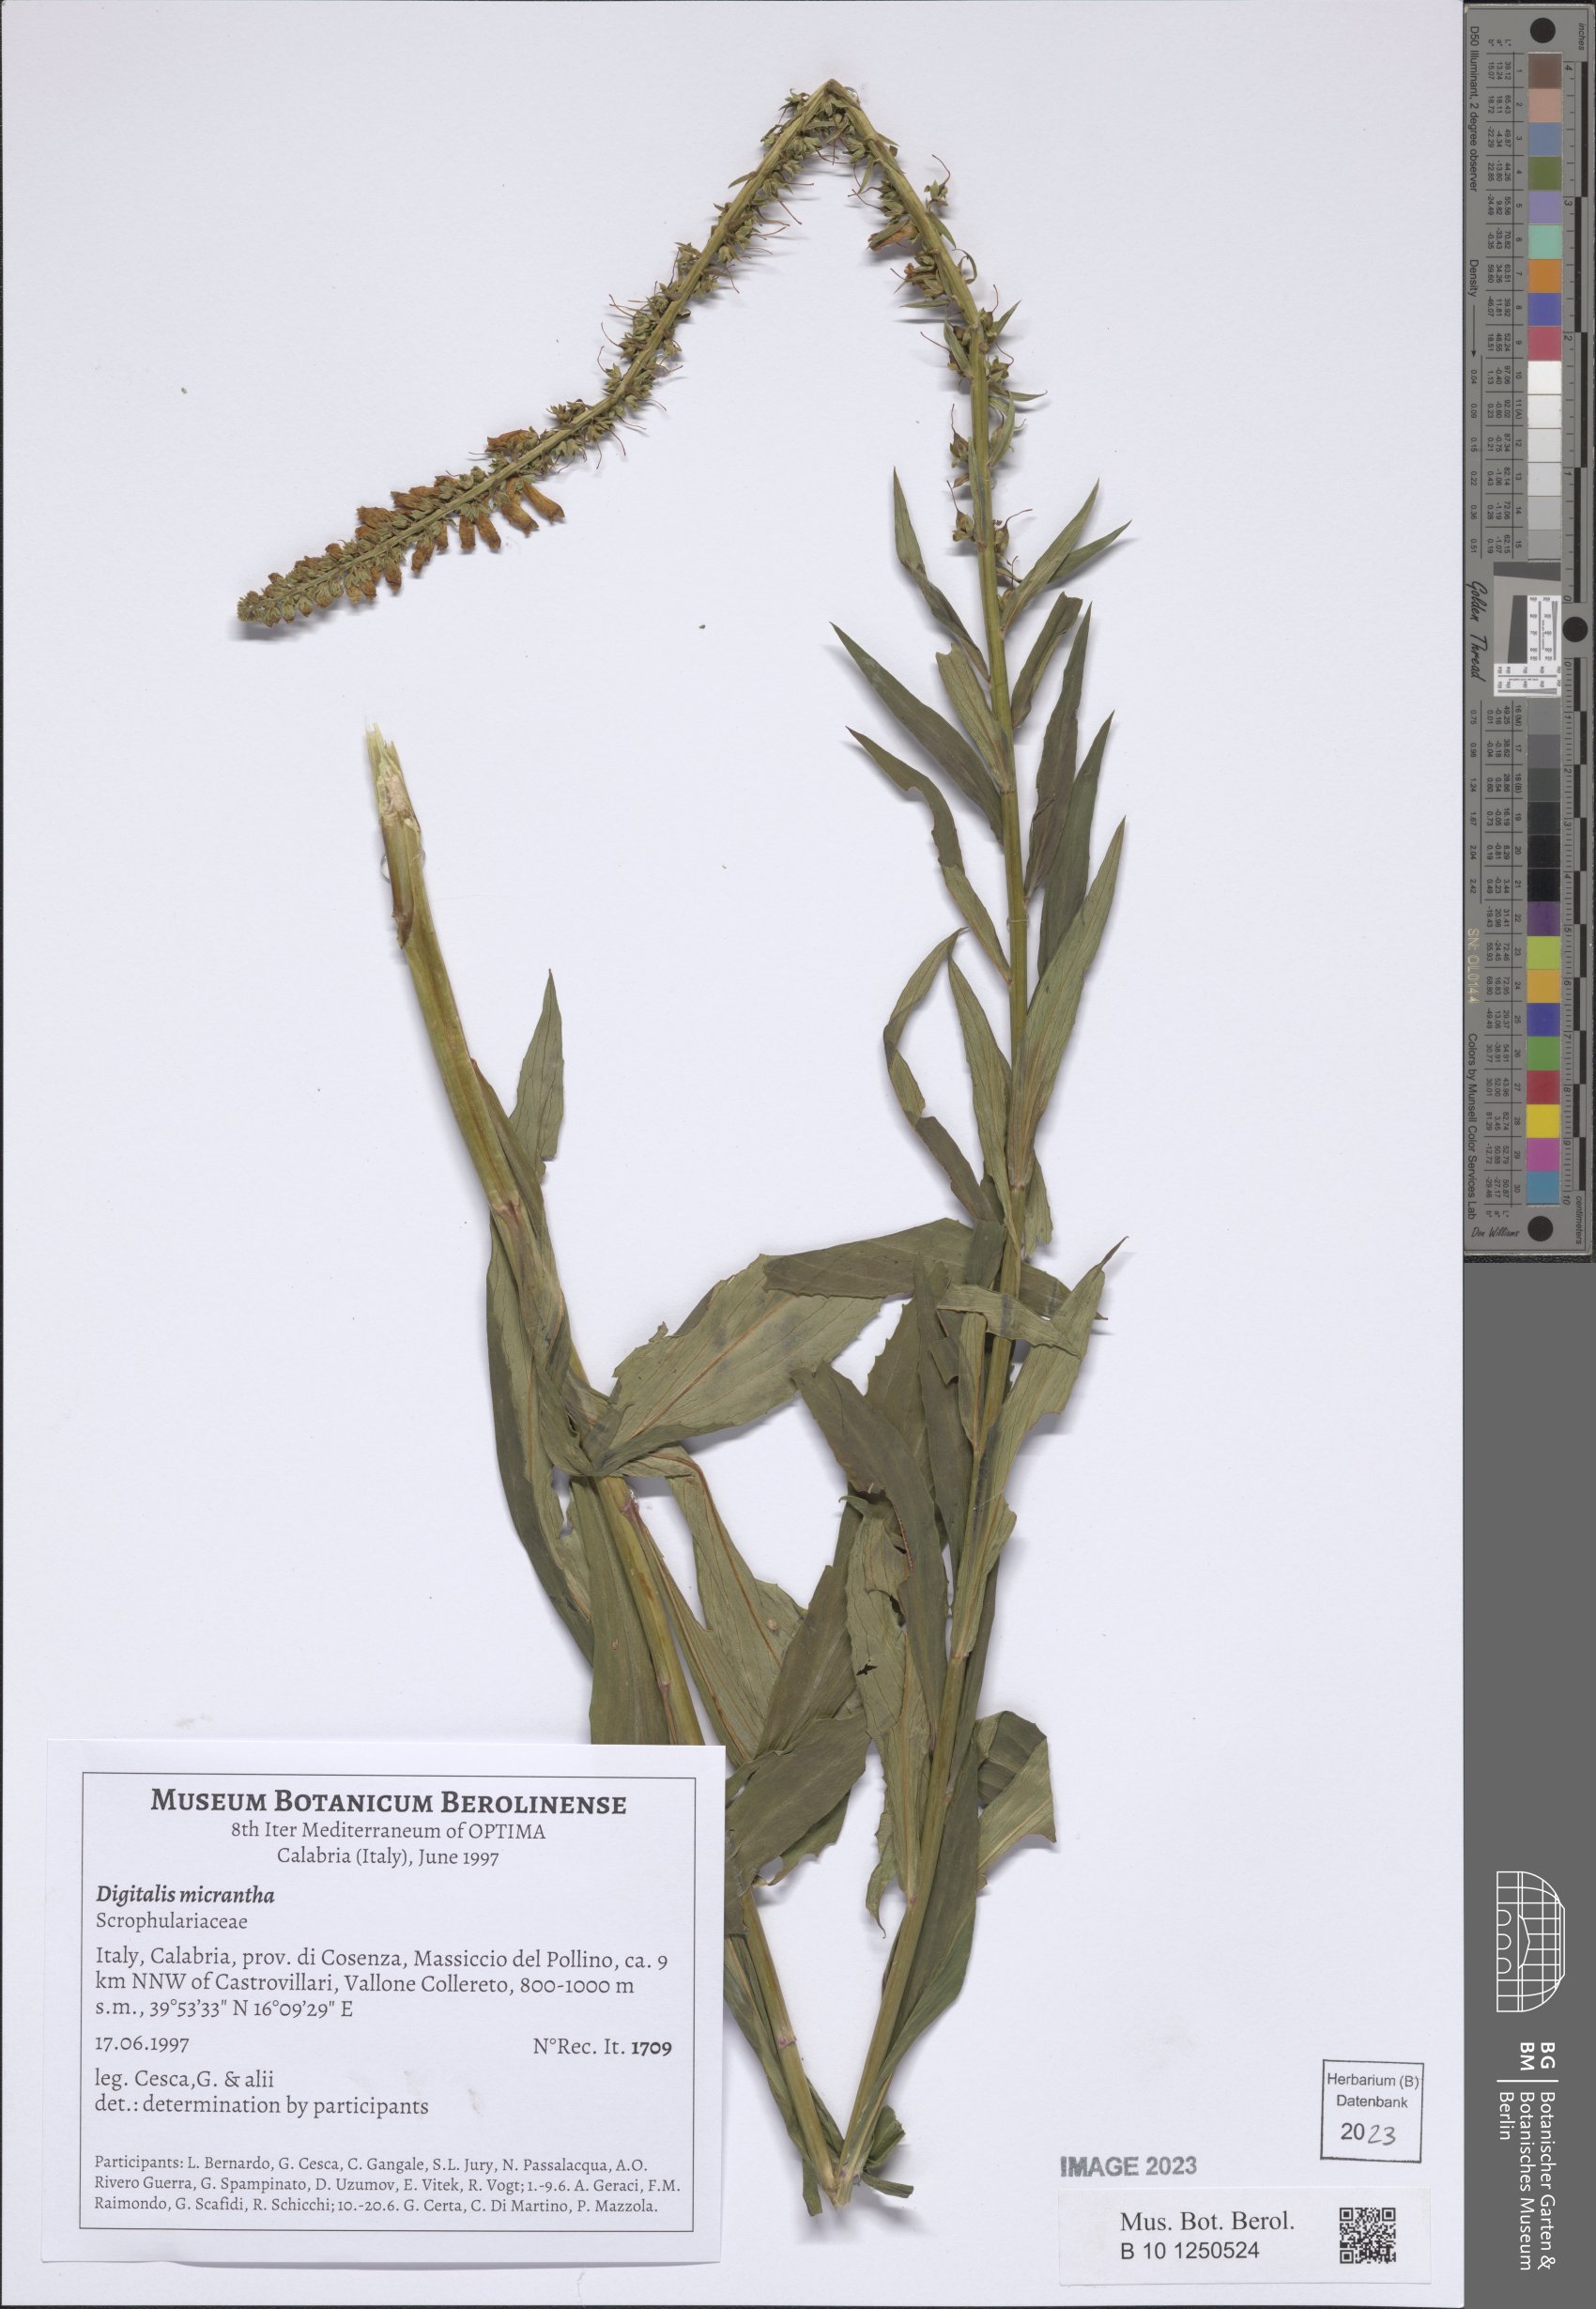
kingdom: Plantae
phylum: Tracheophyta
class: Magnoliopsida
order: Lamiales
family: Plantaginaceae
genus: Digitalis
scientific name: Digitalis lutea
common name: Straw foxglove
